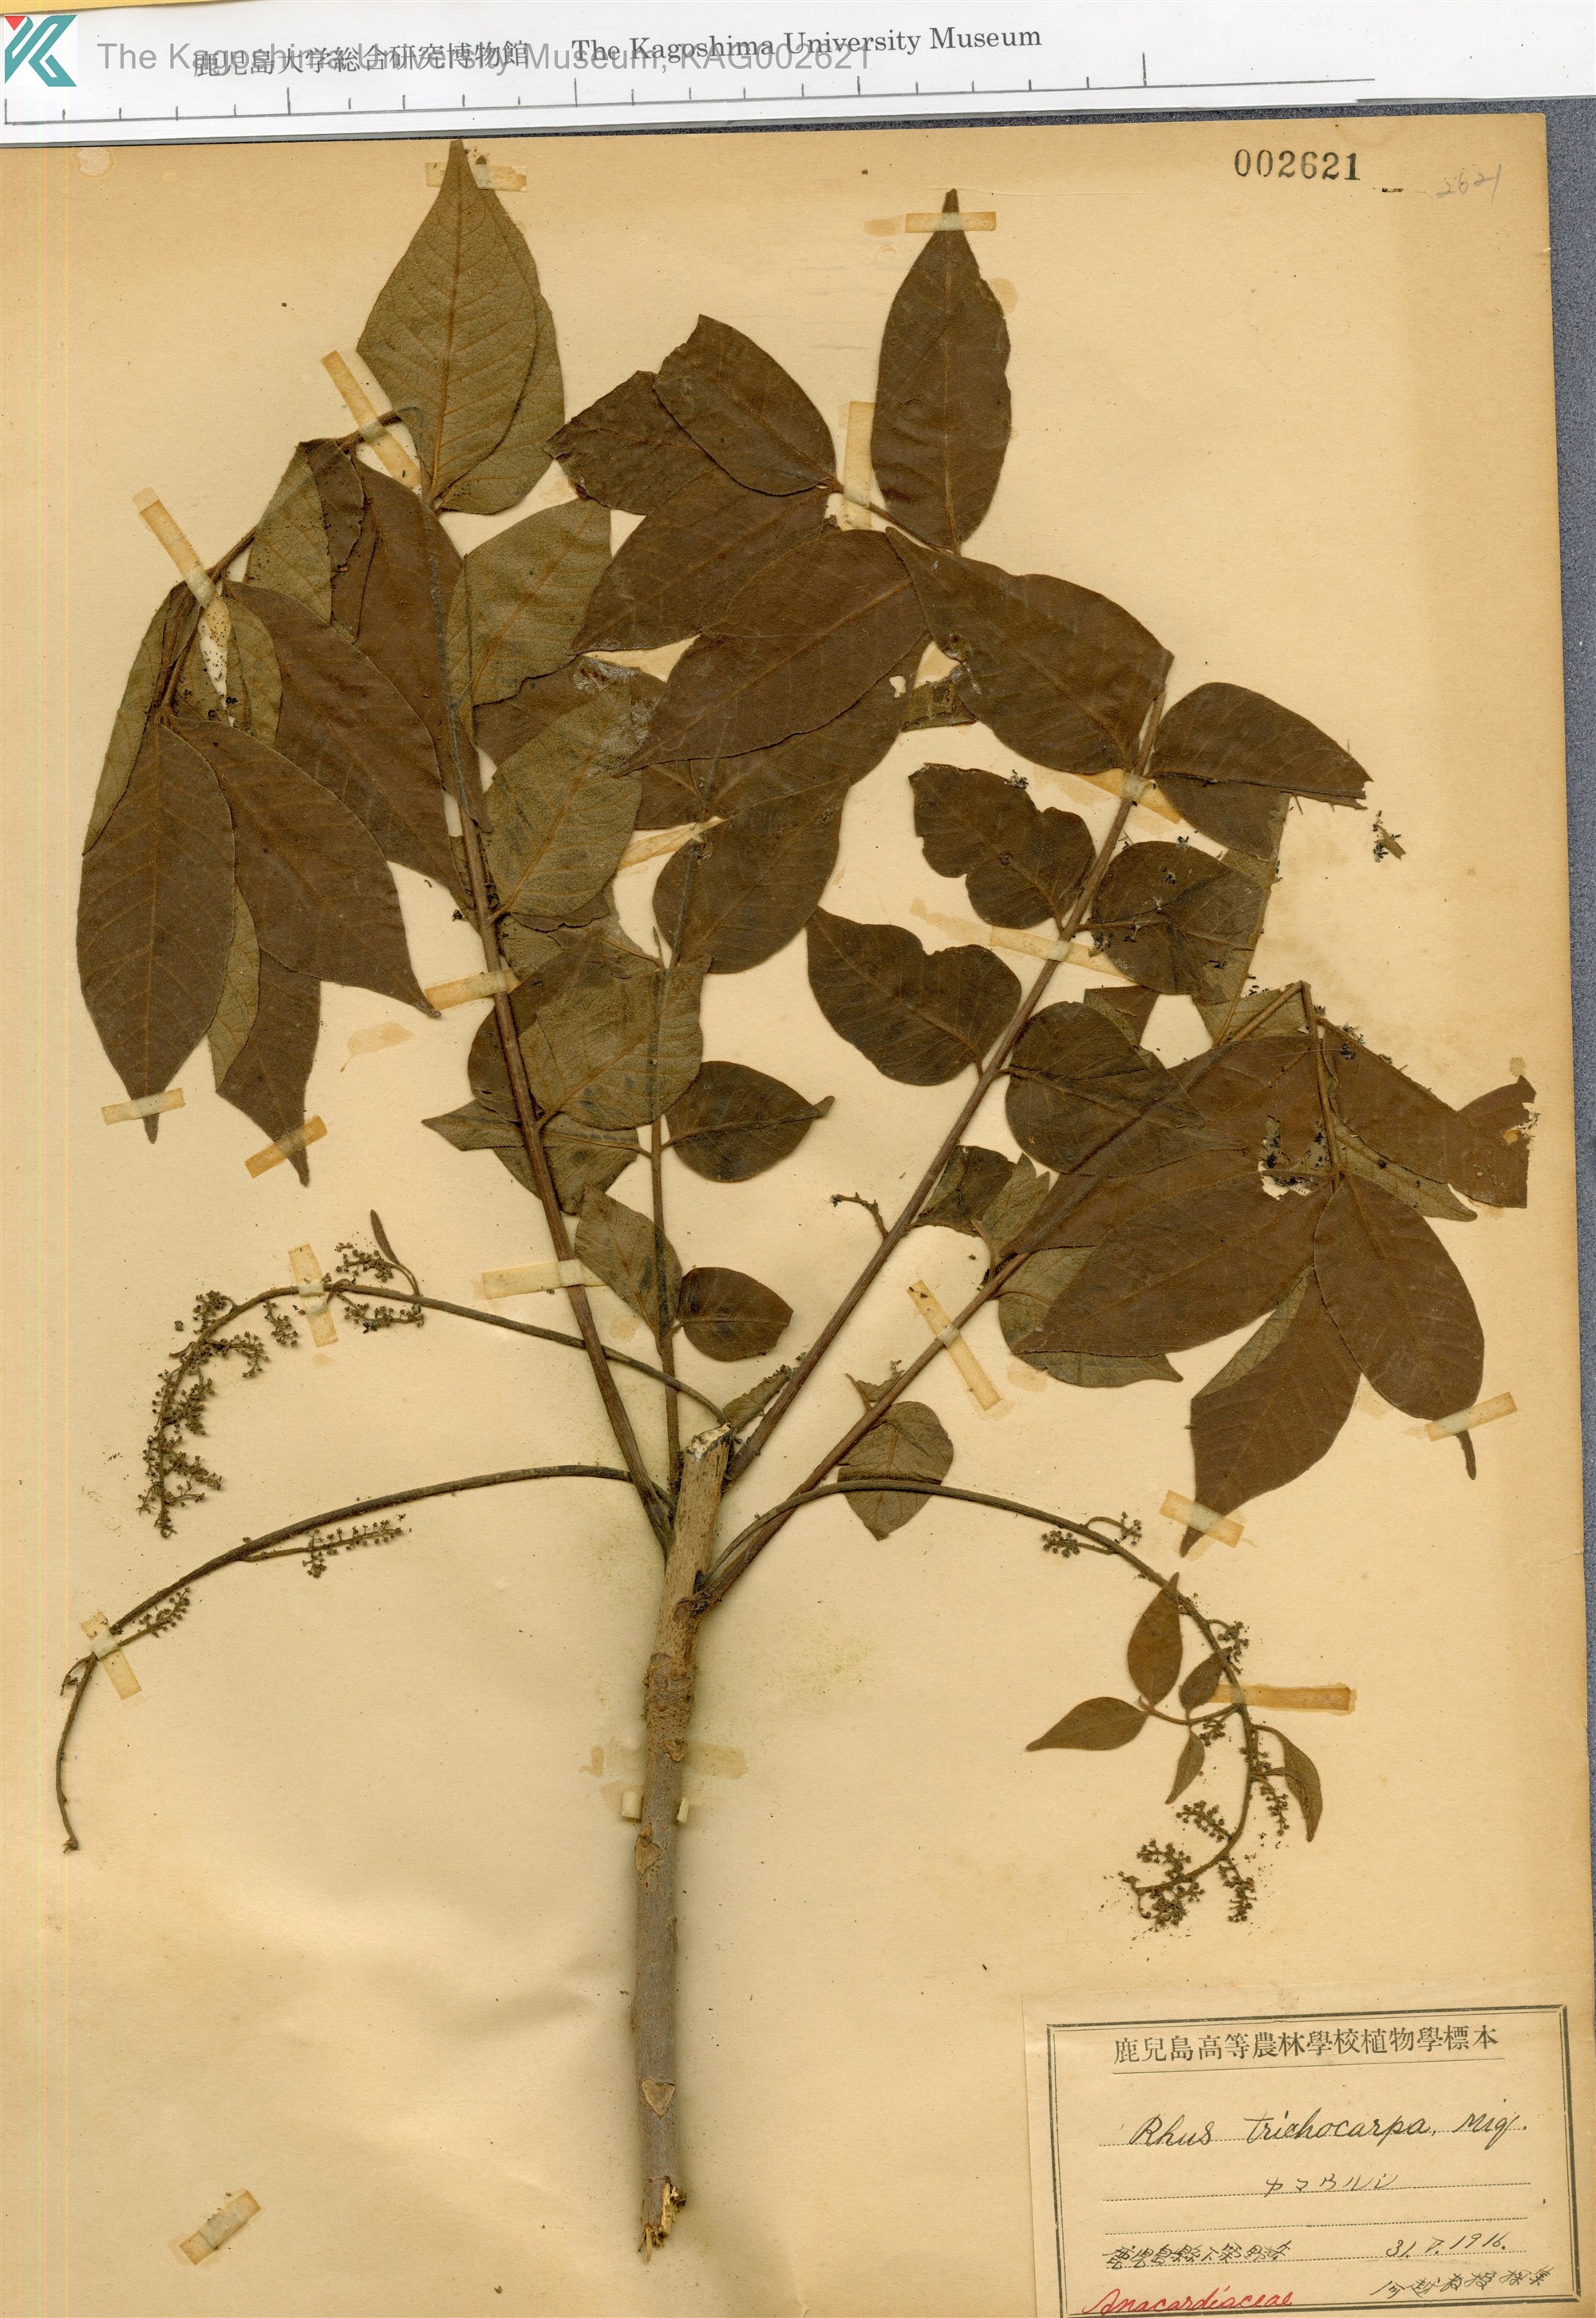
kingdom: Plantae
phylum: Tracheophyta
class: Magnoliopsida
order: Sapindales
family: Anacardiaceae
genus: Toxicodendron
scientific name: Toxicodendron trichocarpum
